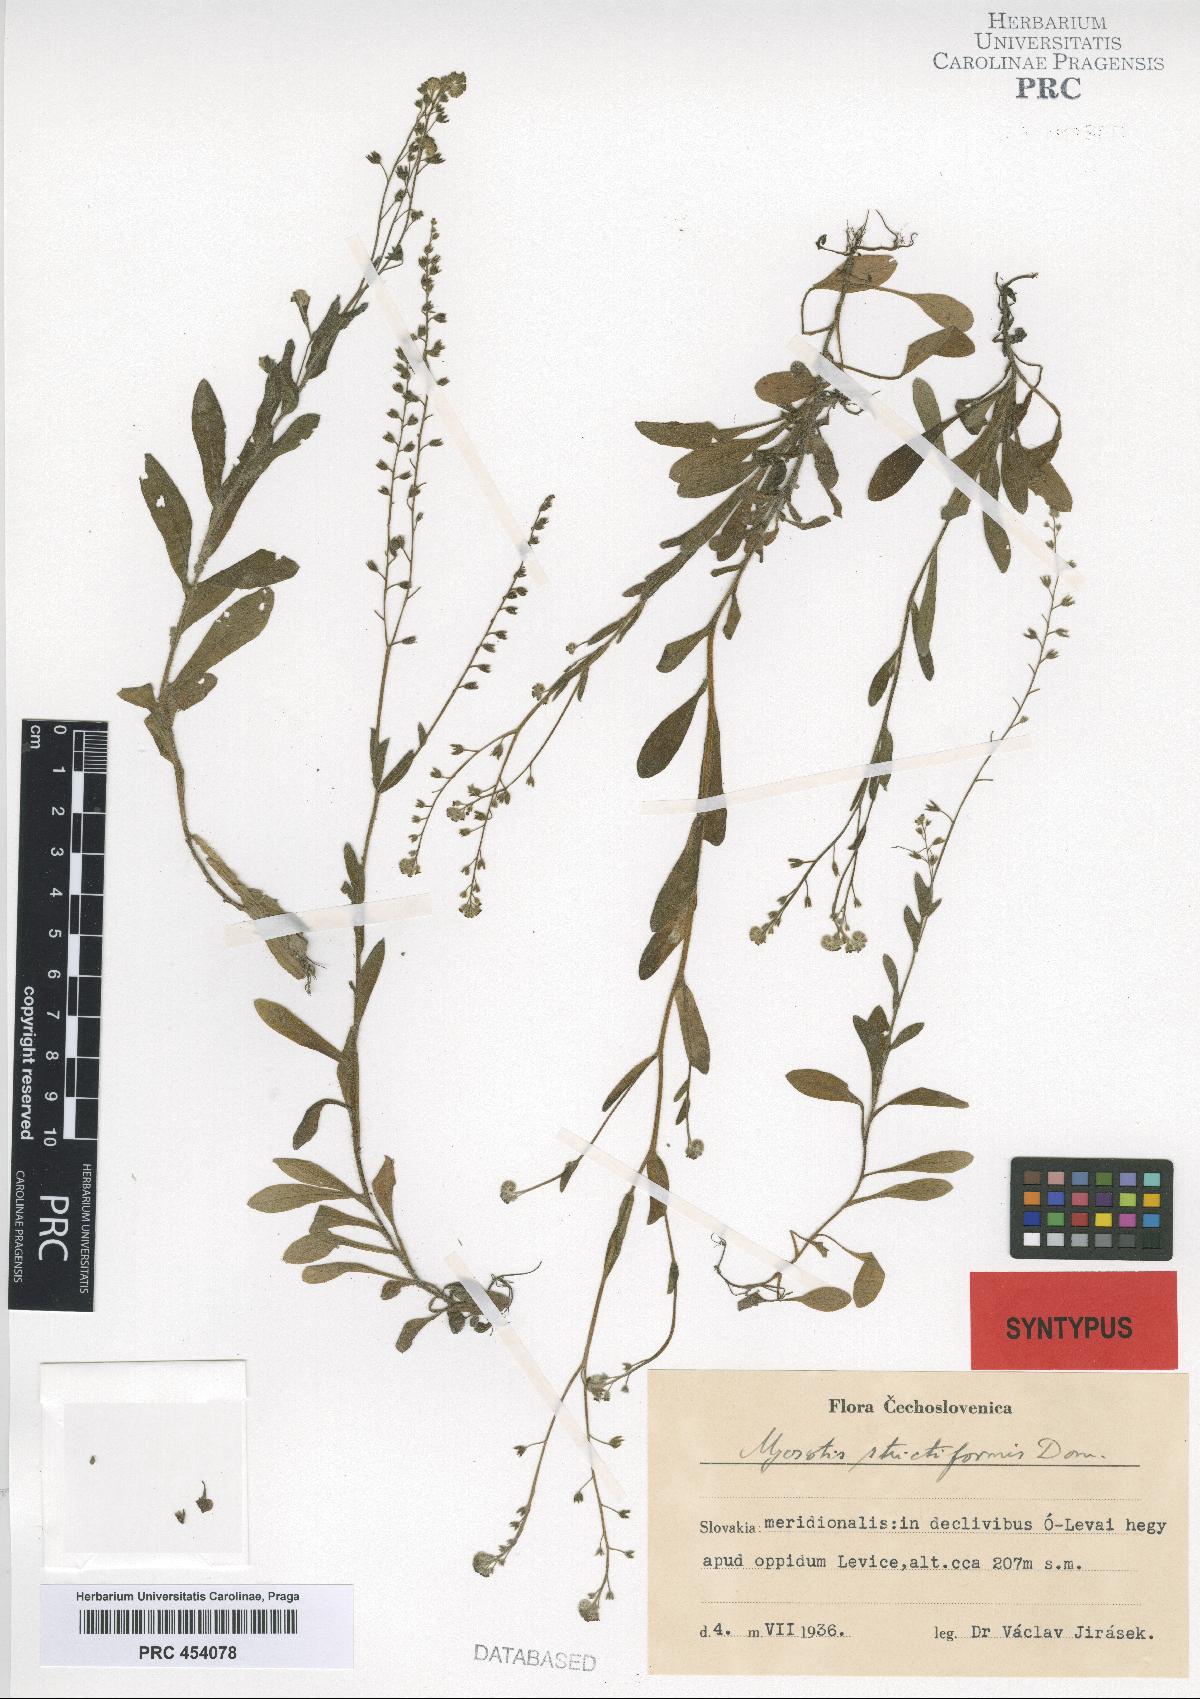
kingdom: Plantae
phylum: Tracheophyta
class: Magnoliopsida
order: Boraginales
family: Boraginaceae
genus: Myosotis
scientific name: Myosotis strictiformis
